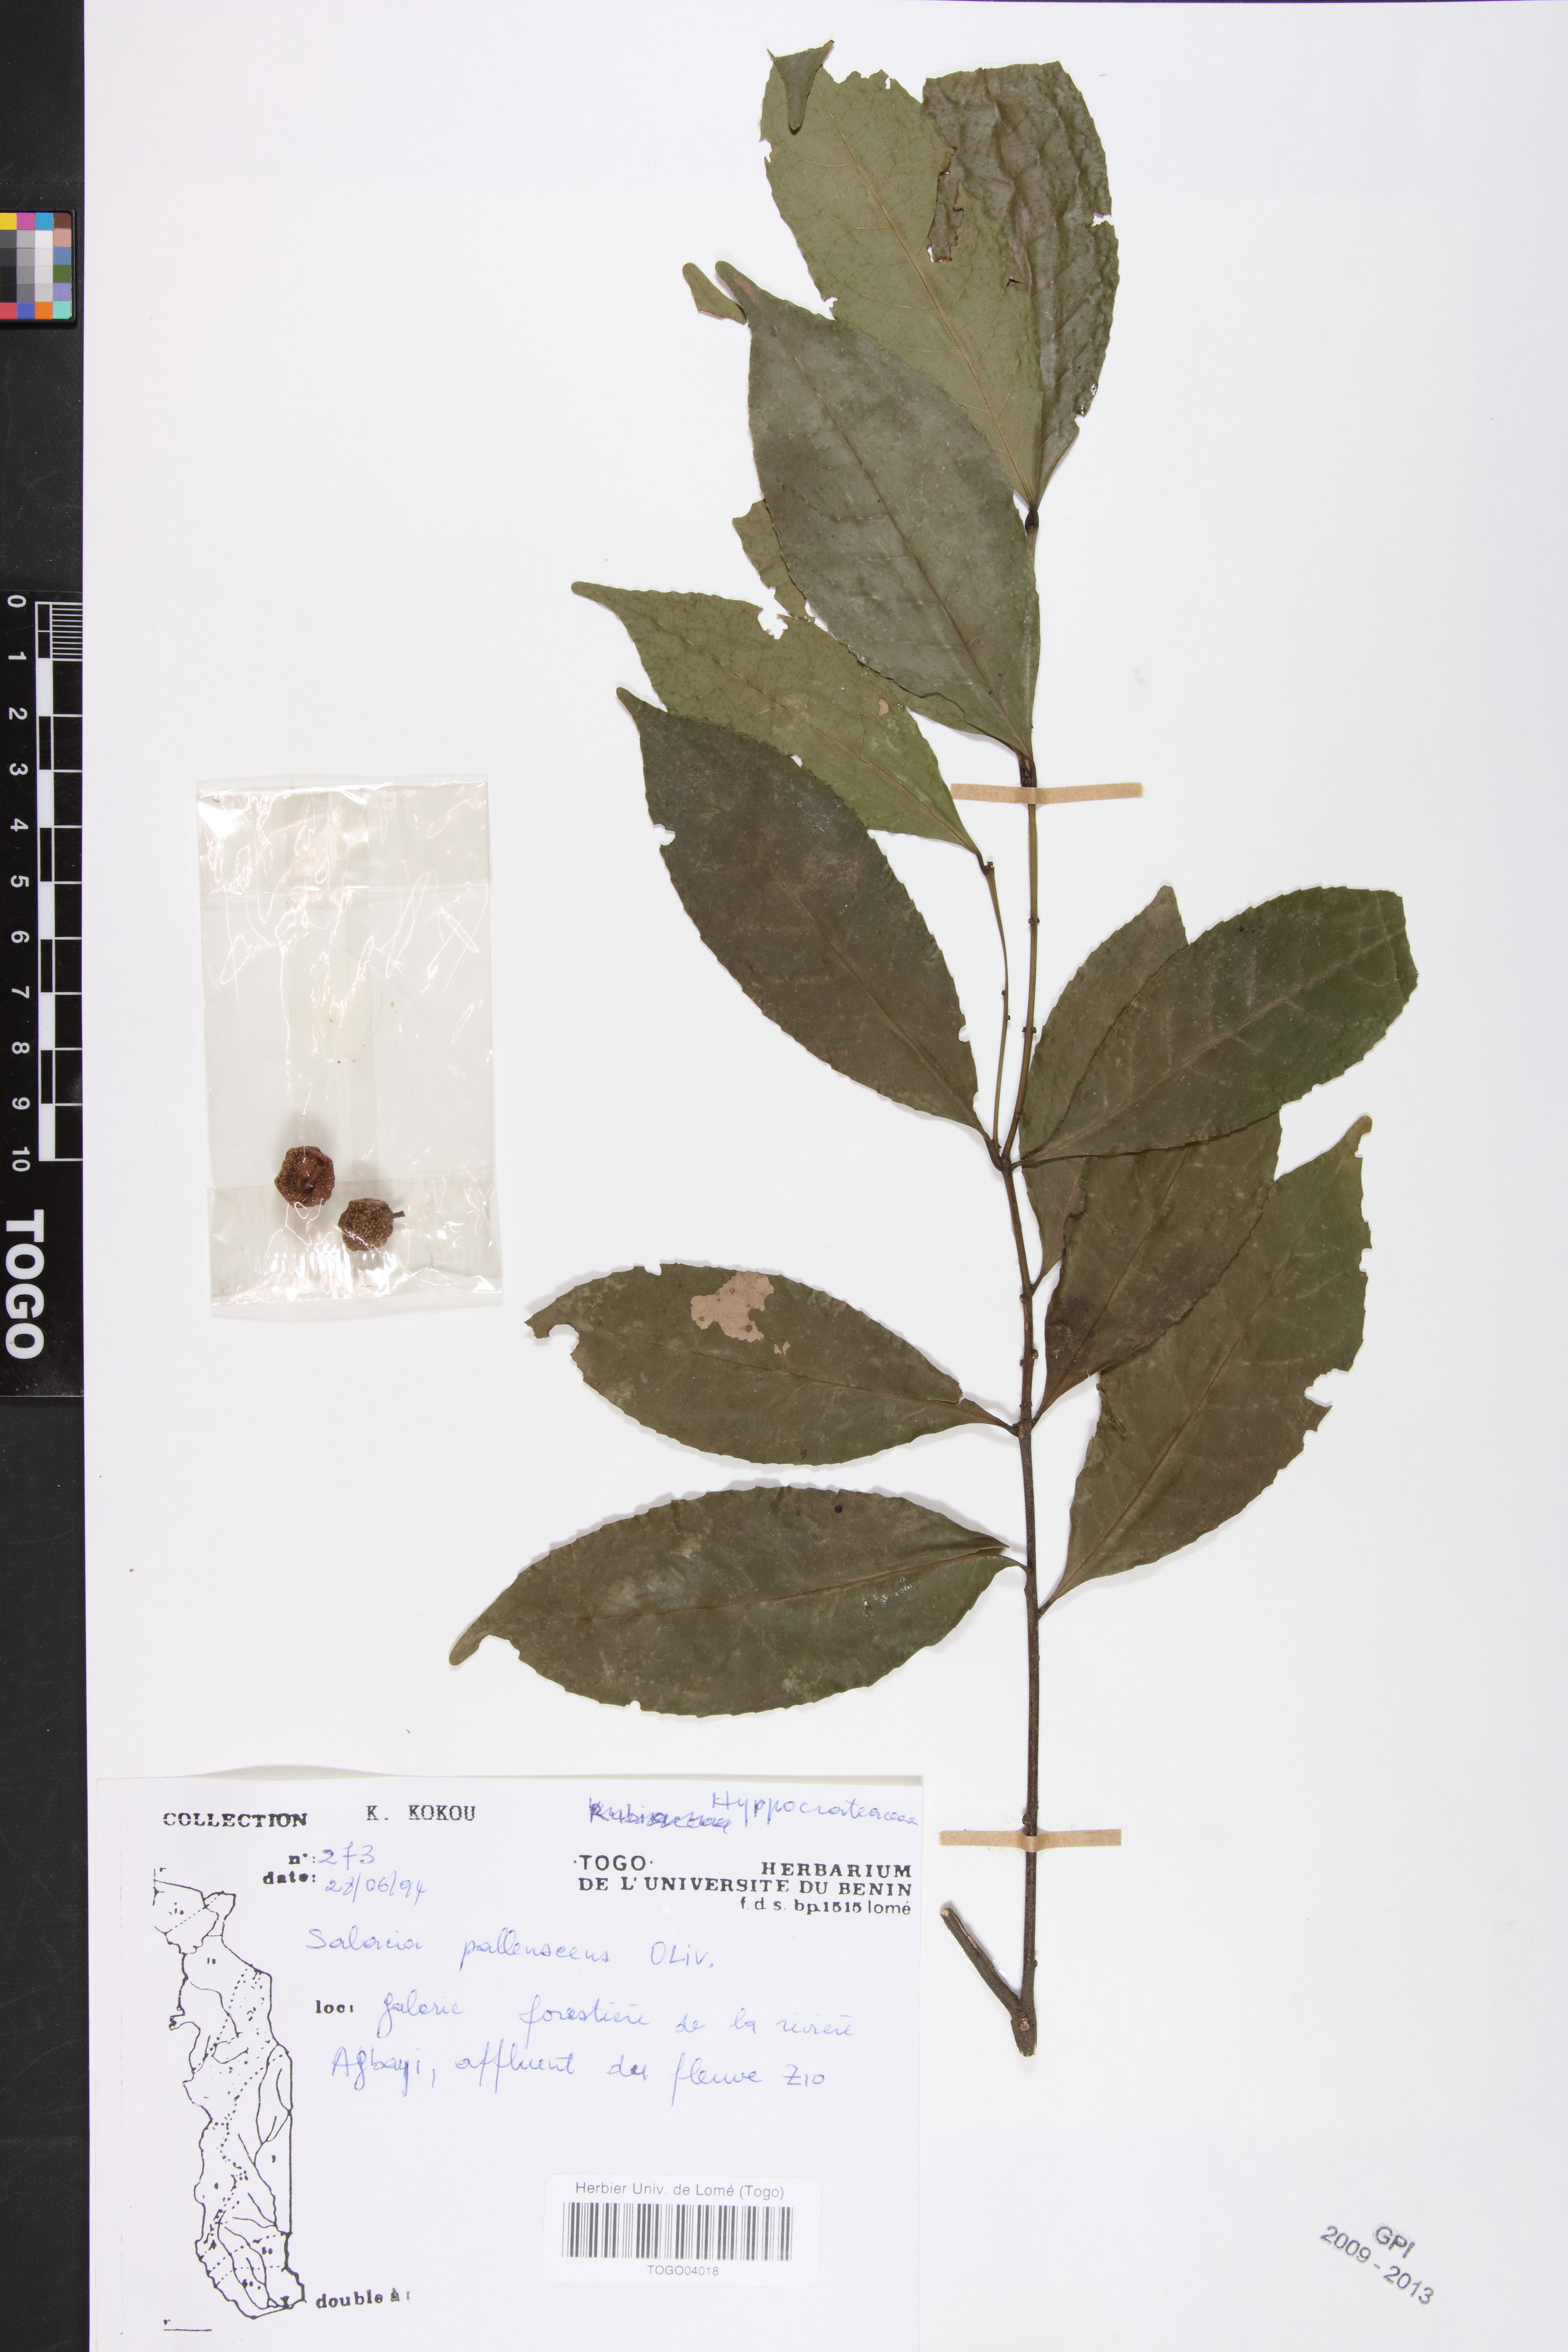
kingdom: Plantae
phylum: Tracheophyta
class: Magnoliopsida
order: Celastrales
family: Celastraceae
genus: Salacia
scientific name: Salacia pallescens
